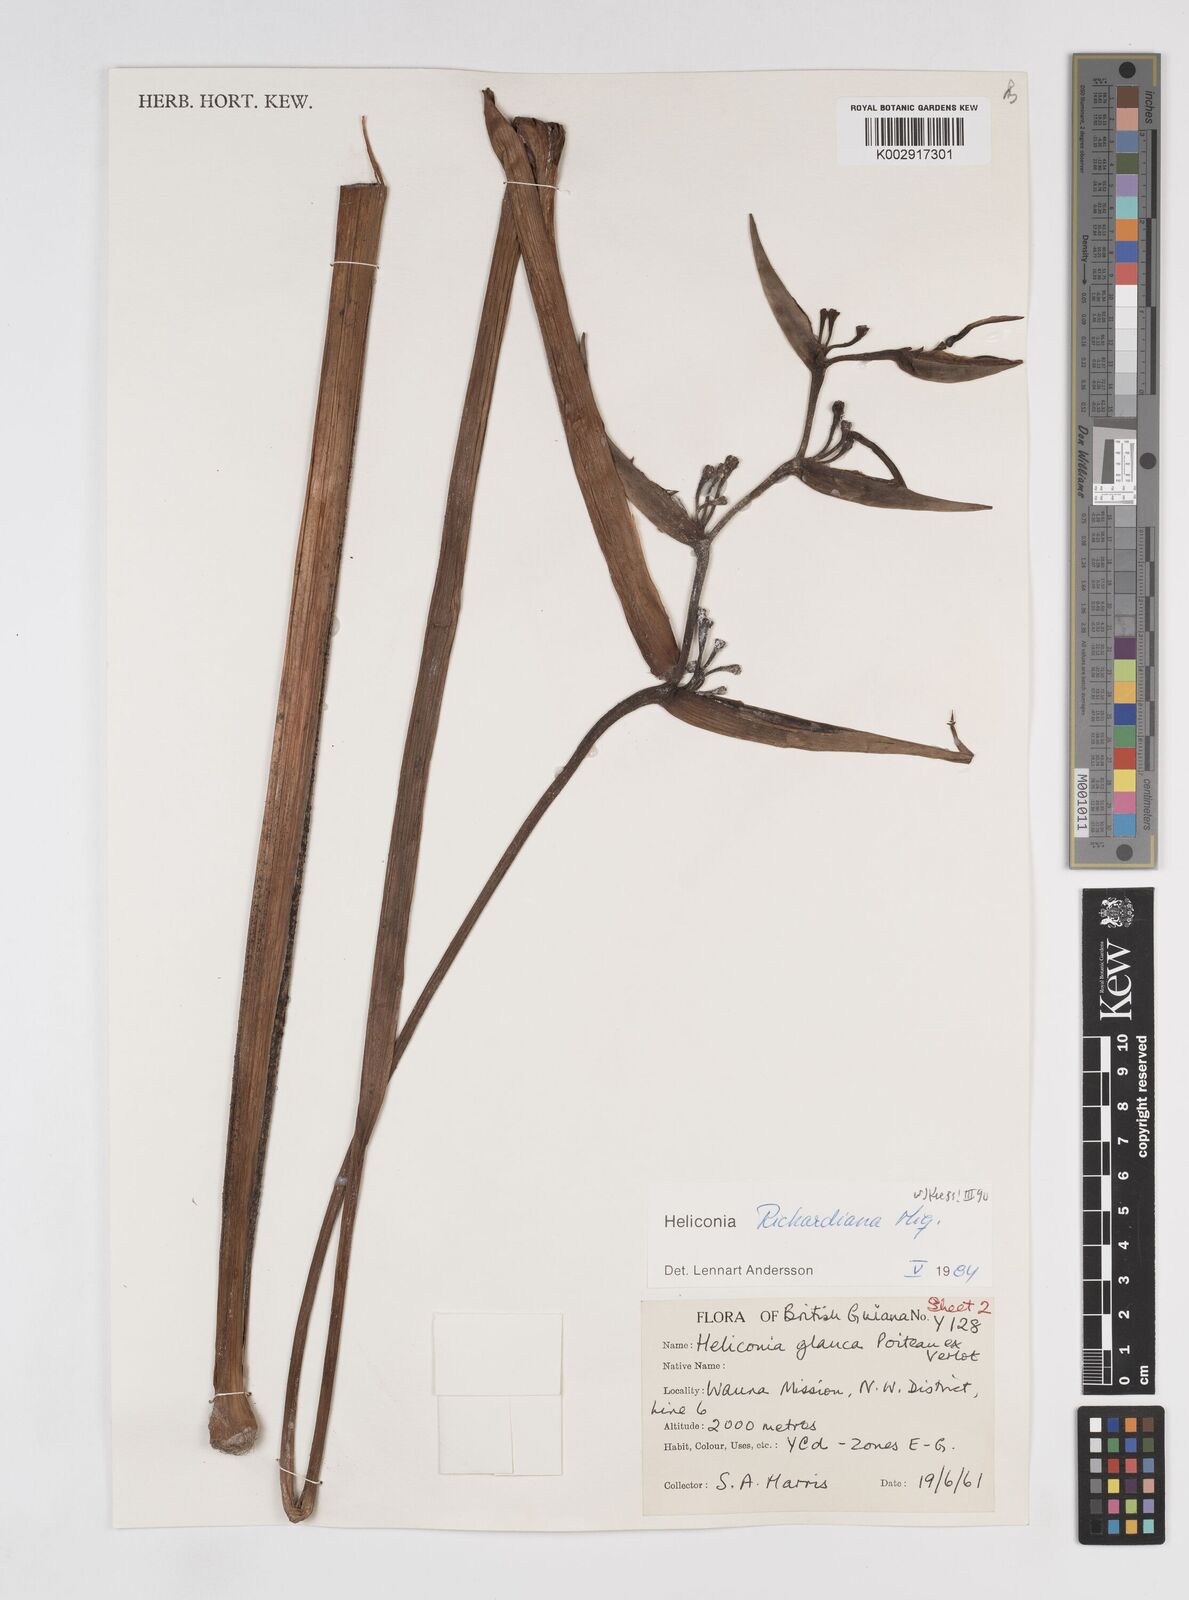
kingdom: Plantae
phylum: Tracheophyta
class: Liliopsida
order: Zingiberales
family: Heliconiaceae
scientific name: Heliconiaceae
